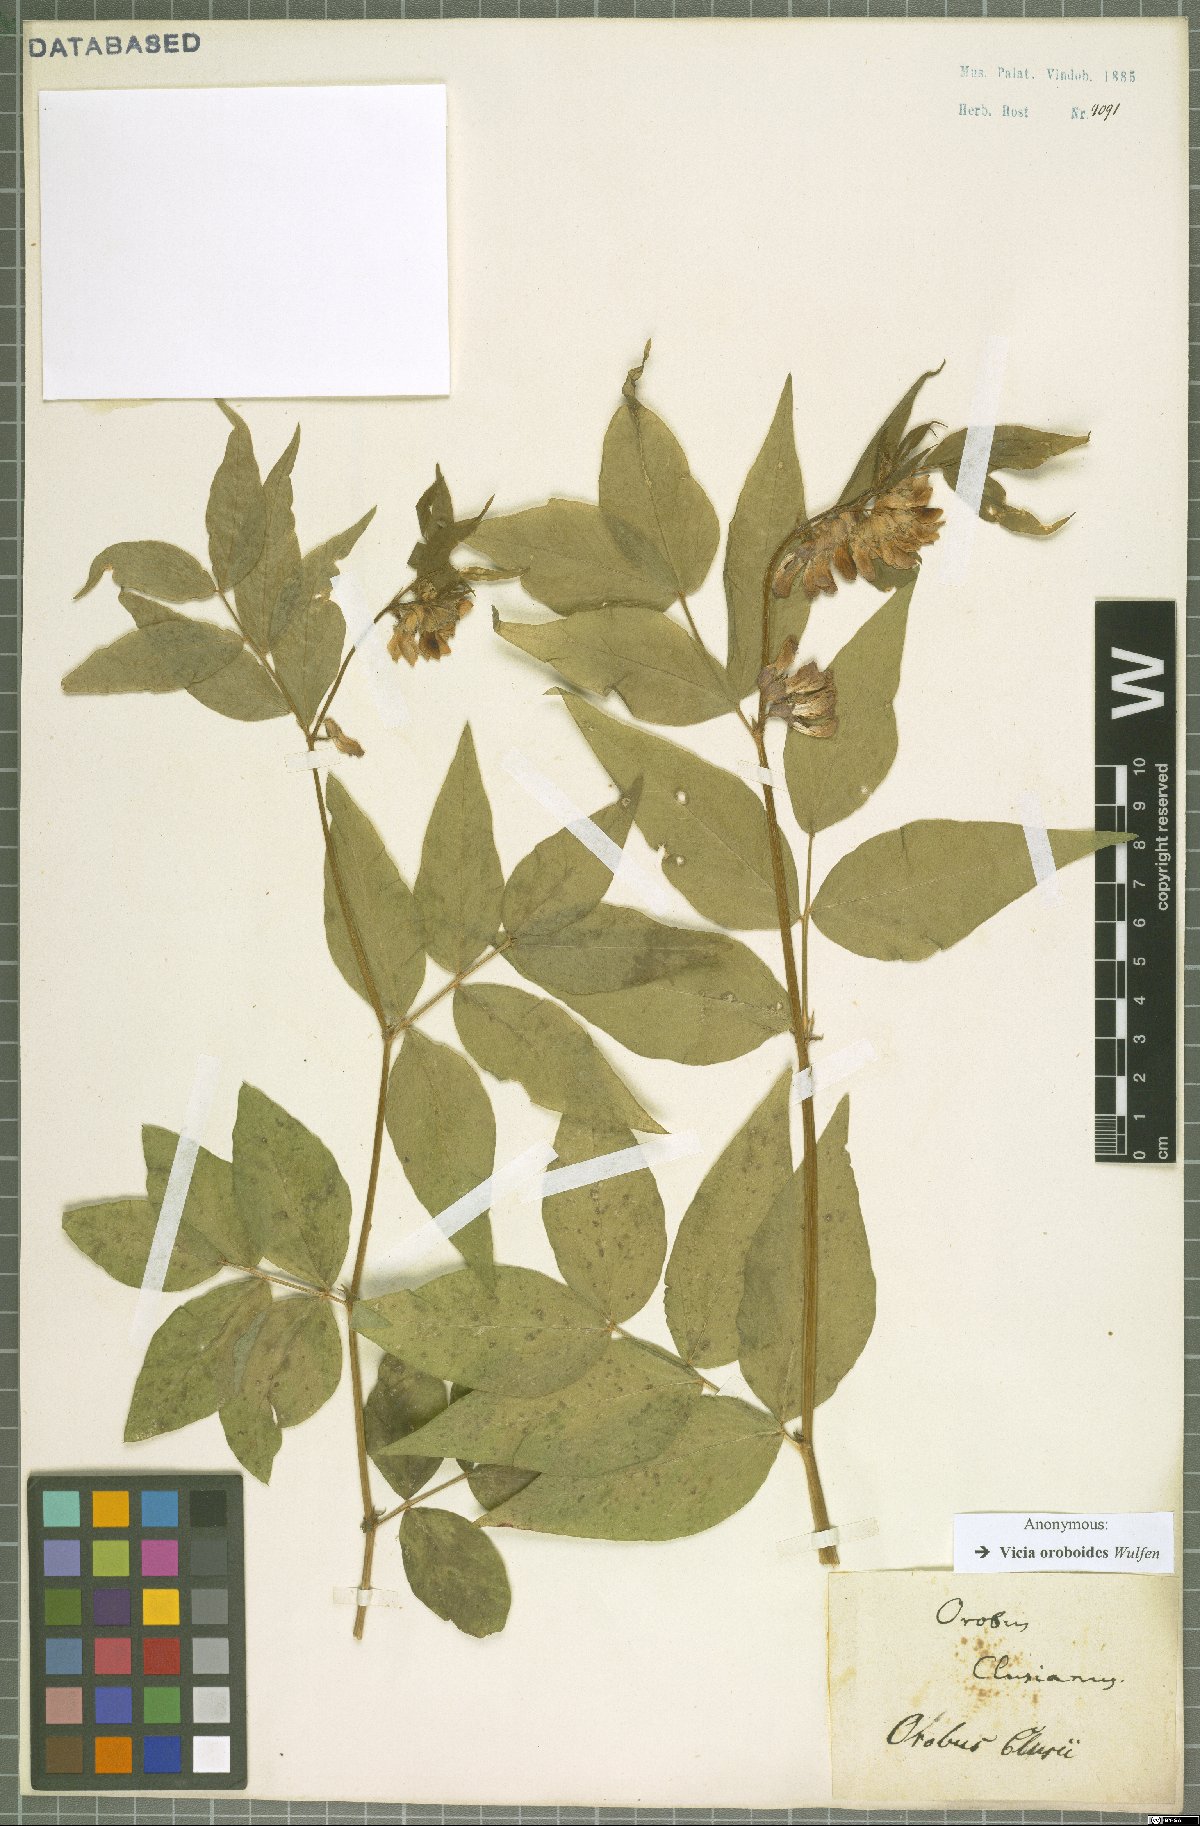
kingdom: Plantae
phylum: Tracheophyta
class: Magnoliopsida
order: Fabales
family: Fabaceae
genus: Vicia
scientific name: Vicia oroboides
